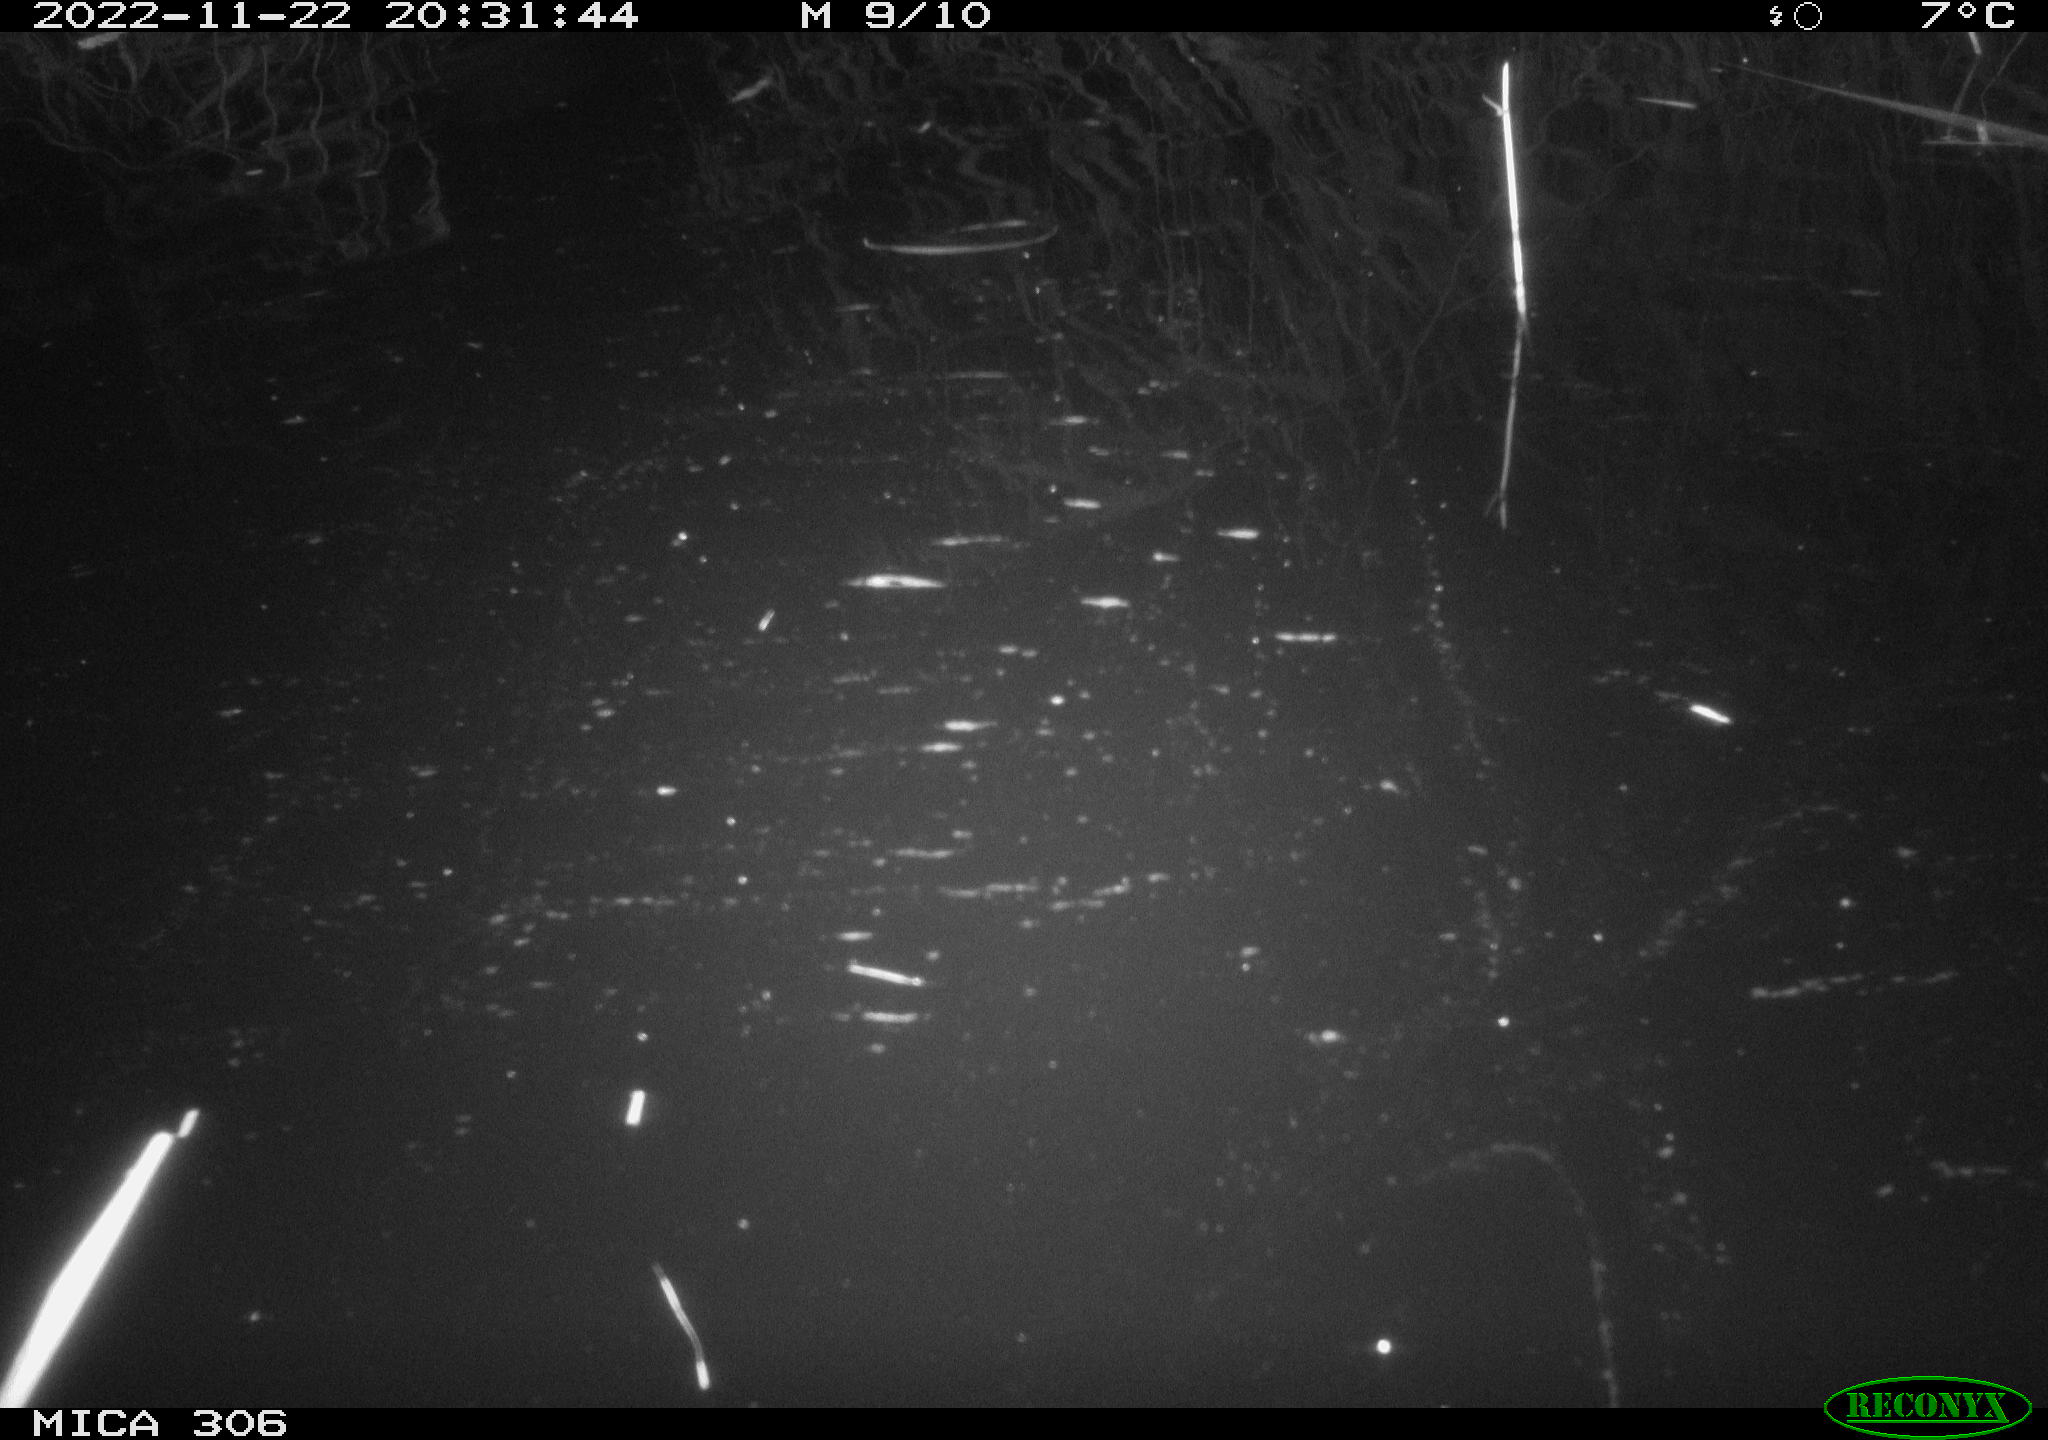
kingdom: Animalia
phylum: Chordata
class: Mammalia
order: Rodentia
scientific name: Rodentia
